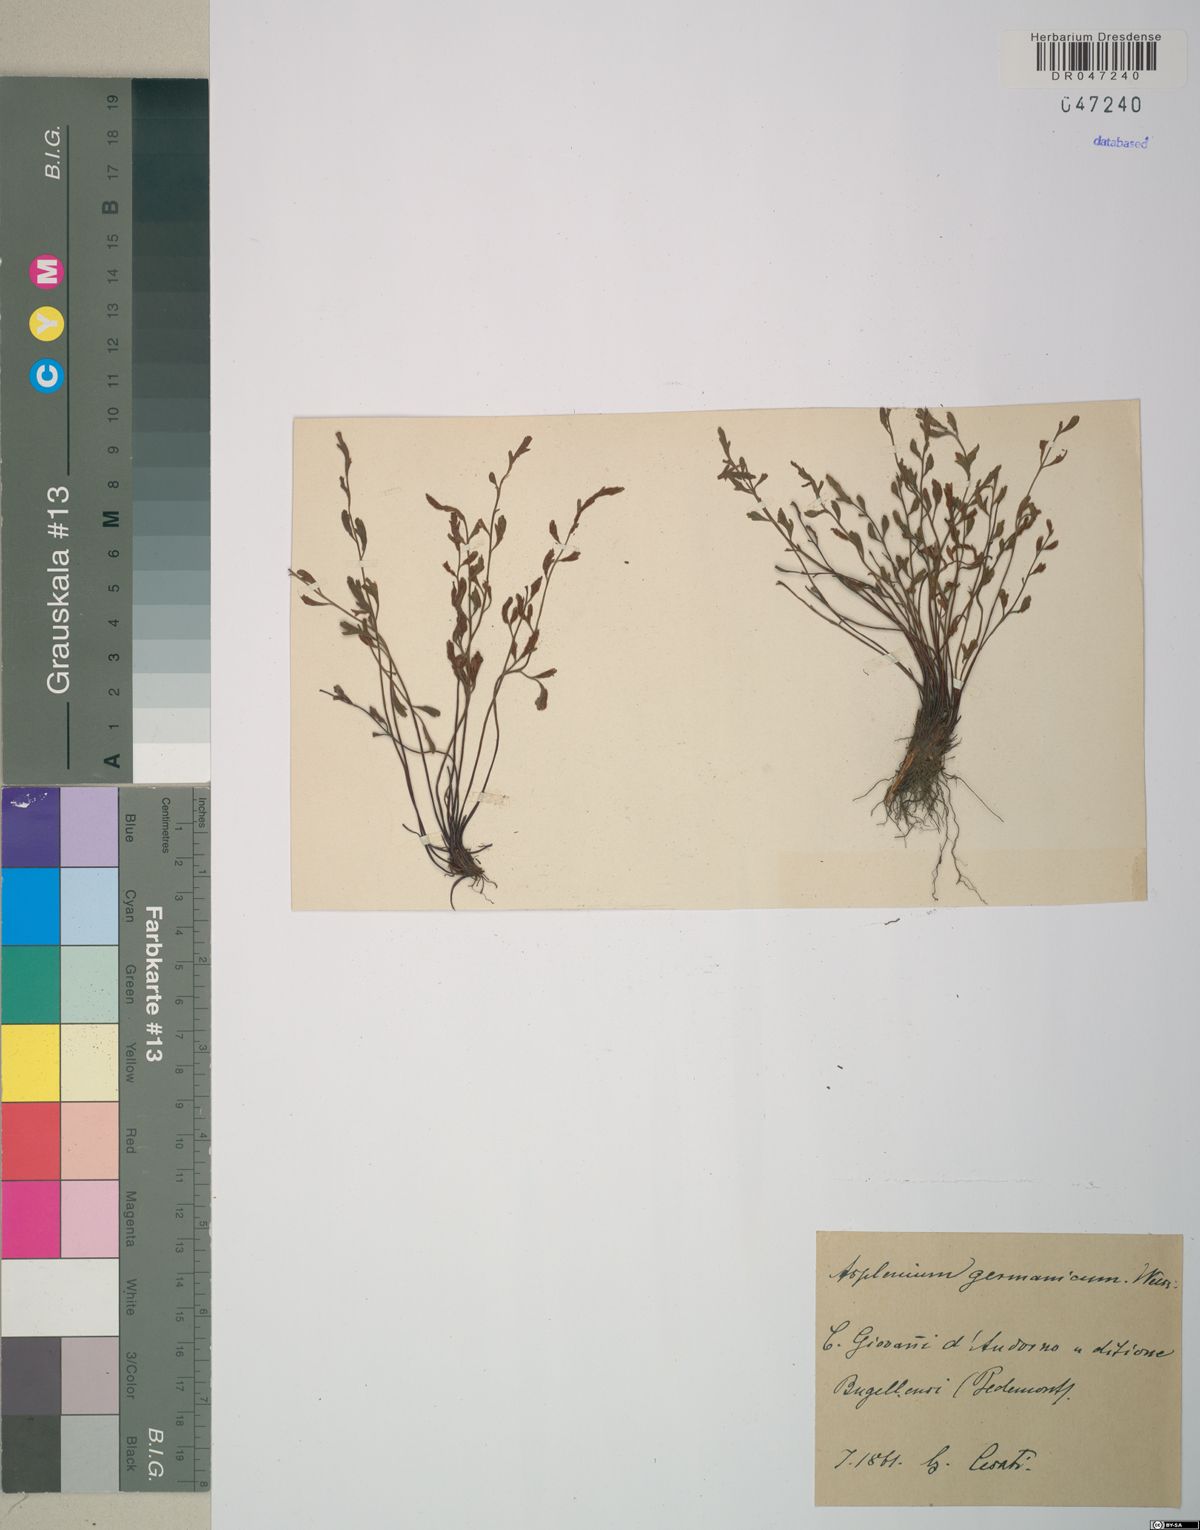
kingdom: Plantae
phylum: Tracheophyta
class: Polypodiopsida
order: Polypodiales
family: Aspleniaceae
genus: Asplenium
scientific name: Asplenium
